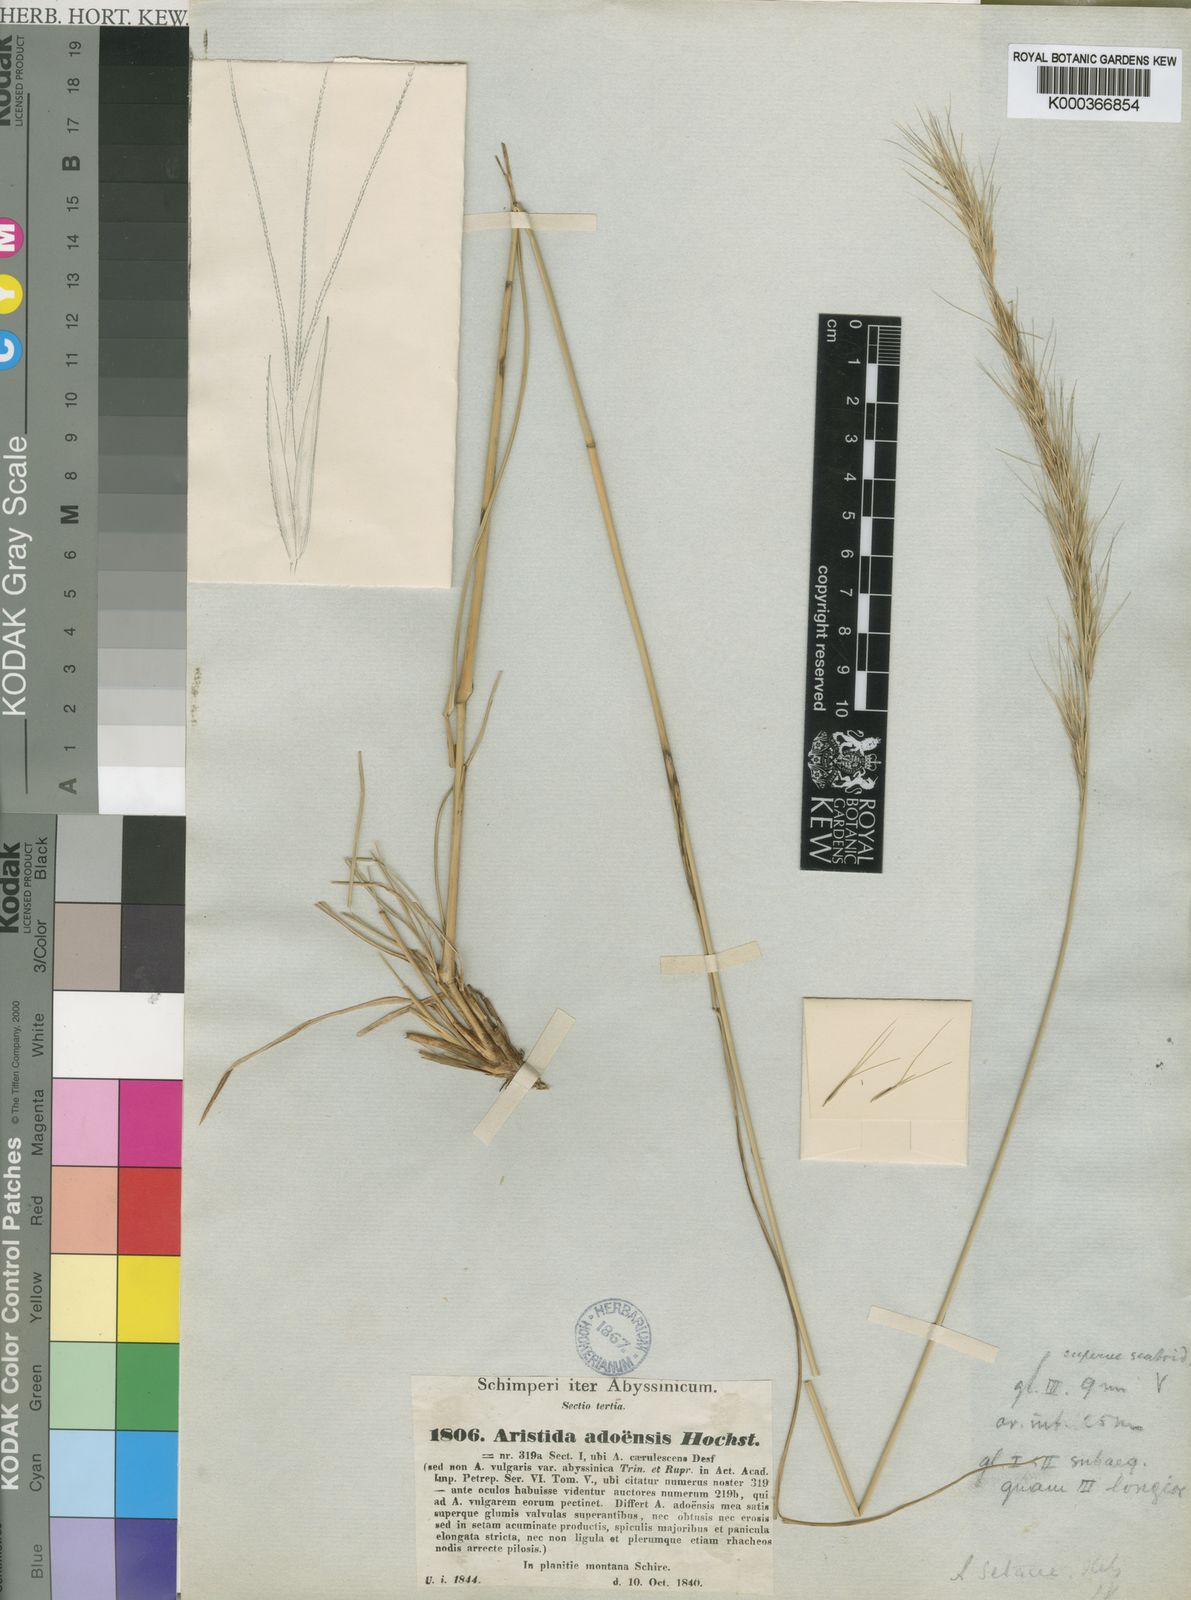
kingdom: Plantae
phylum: Tracheophyta
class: Liliopsida
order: Poales
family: Poaceae
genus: Aristida
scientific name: Aristida
